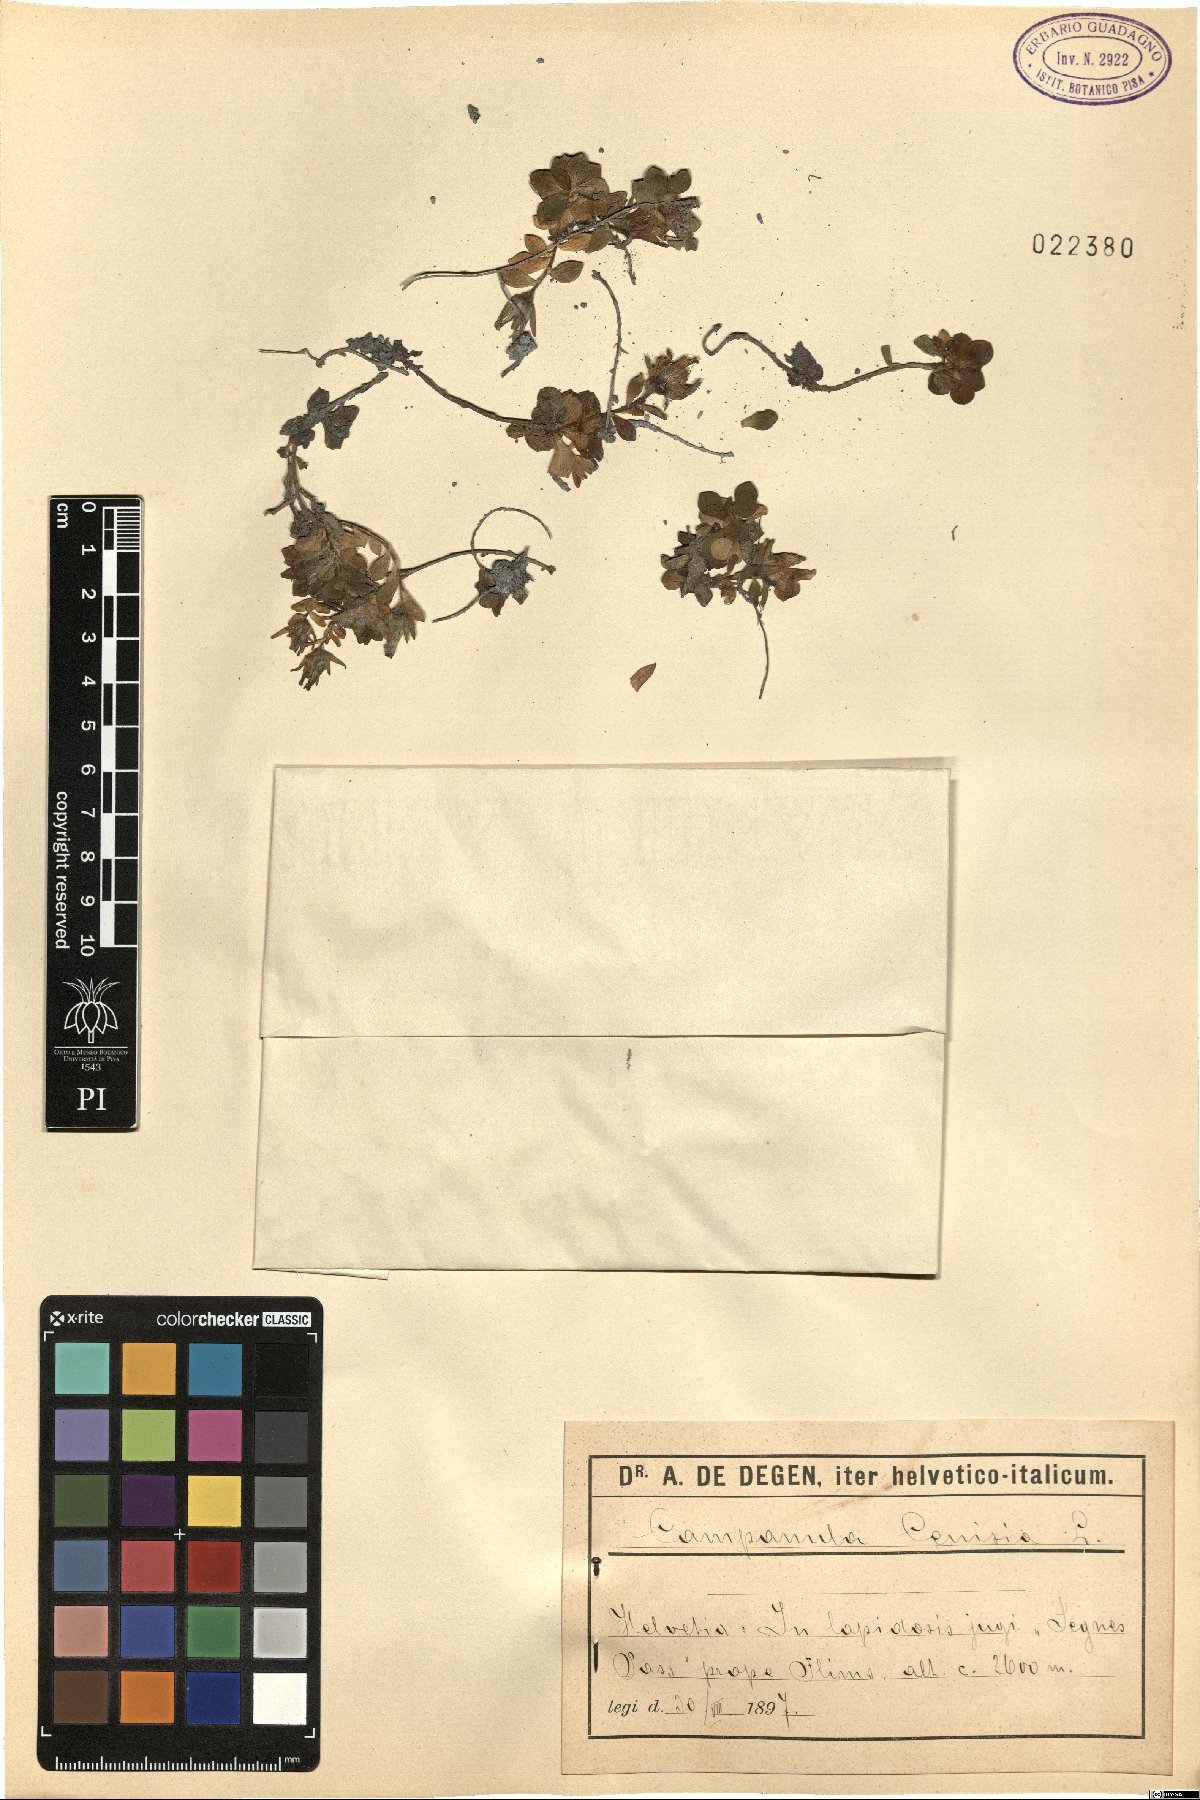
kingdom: Plantae
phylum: Tracheophyta
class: Magnoliopsida
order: Asterales
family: Campanulaceae
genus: Campanula
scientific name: Campanula cenisia
